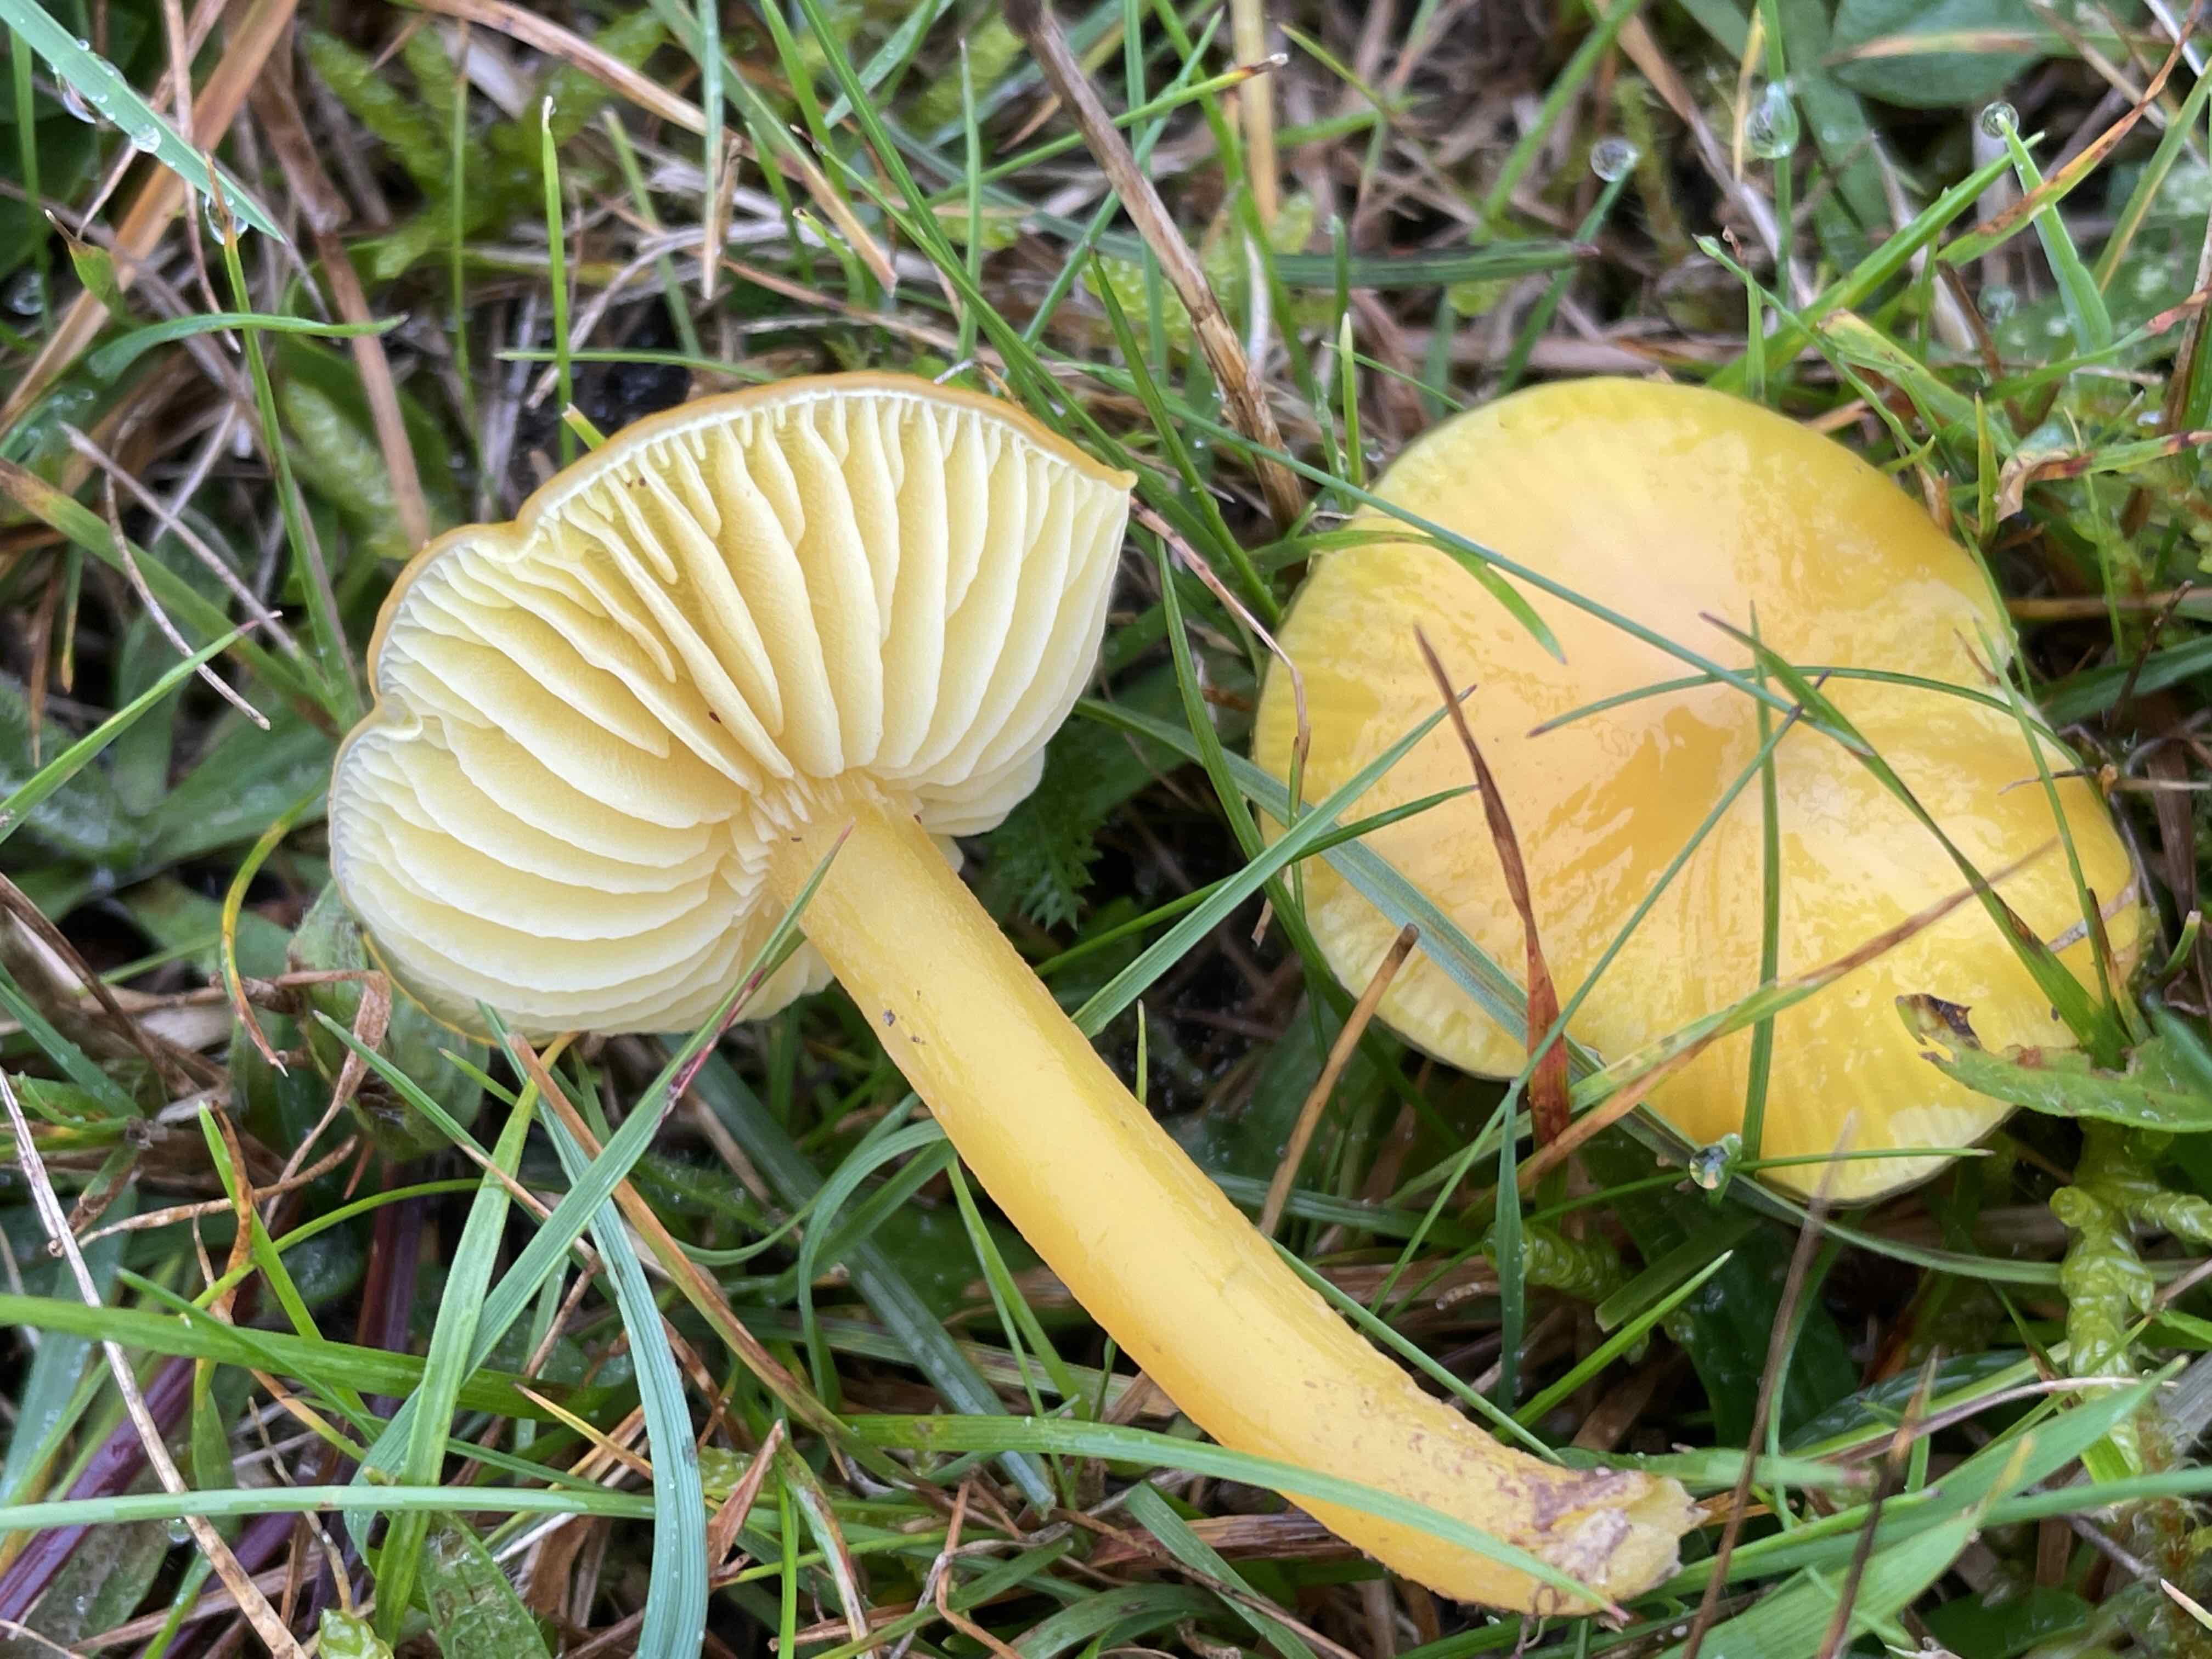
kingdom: Fungi
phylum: Basidiomycota
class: Agaricomycetes
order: Agaricales
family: Hygrophoraceae
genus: Hygrocybe
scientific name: Hygrocybe chlorophana
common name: gul vokshat
